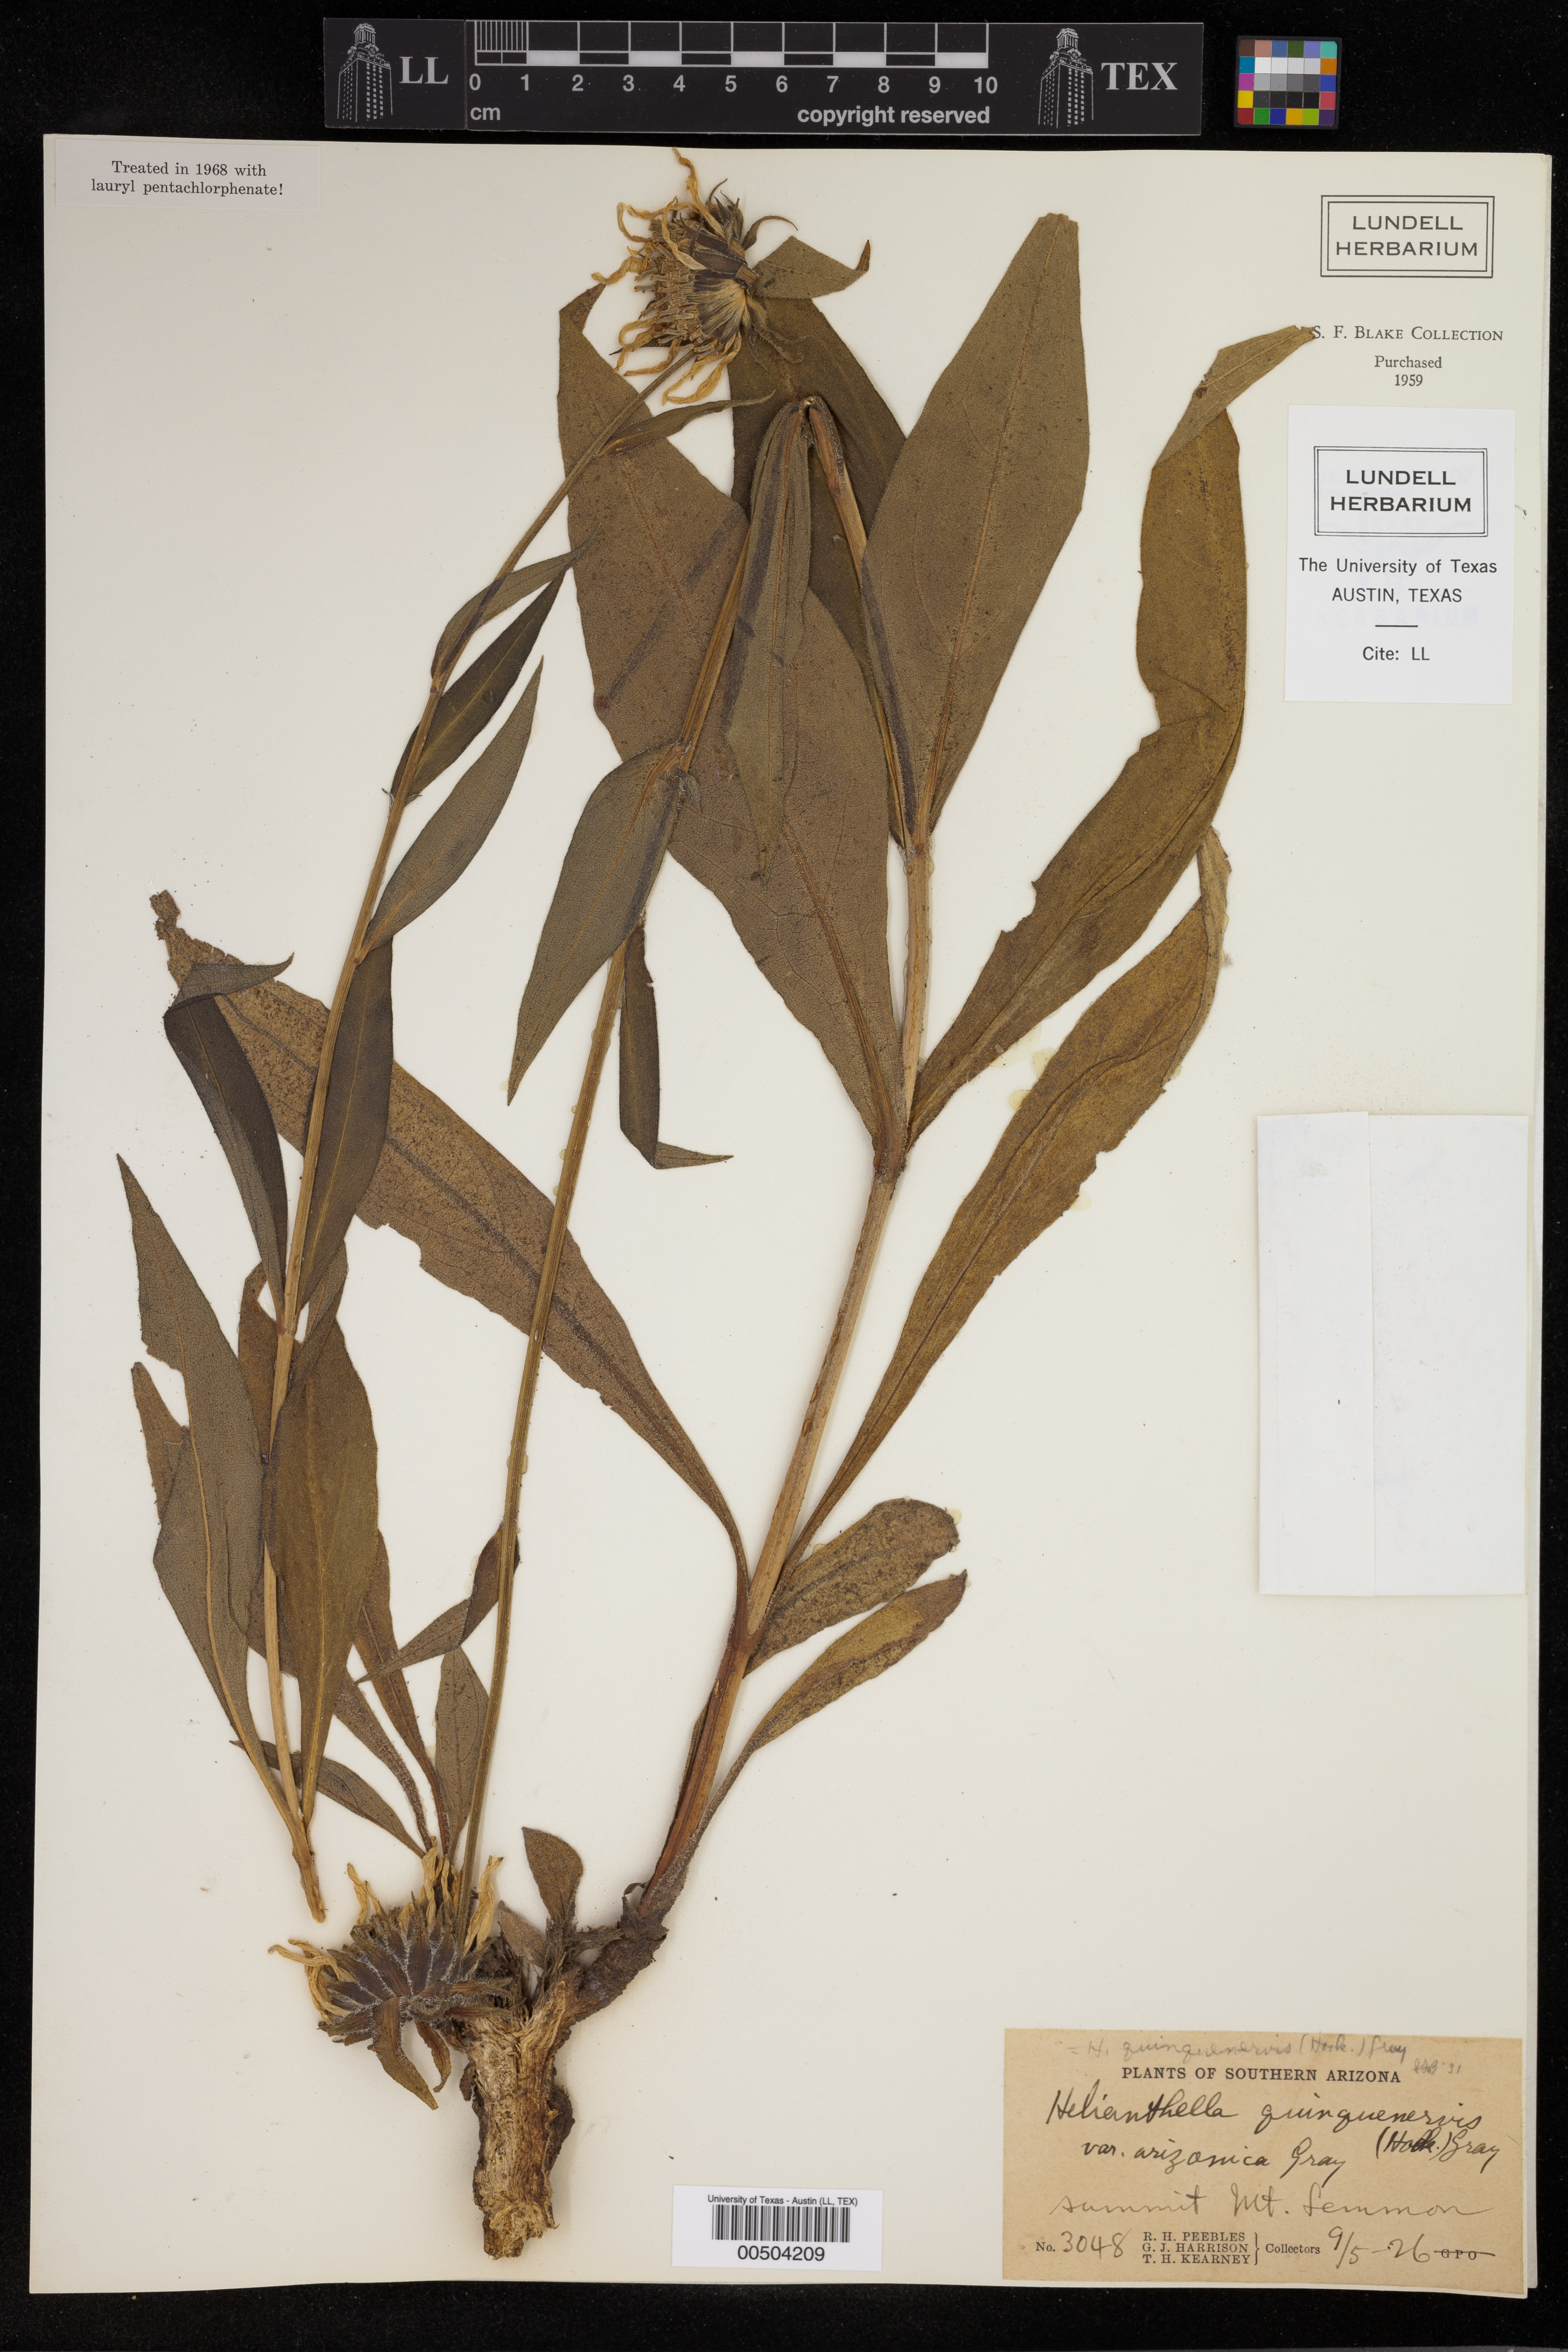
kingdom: Plantae
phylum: Tracheophyta
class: Magnoliopsida
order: Asterales
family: Asteraceae
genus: Helianthella
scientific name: Helianthella quinquenervis
